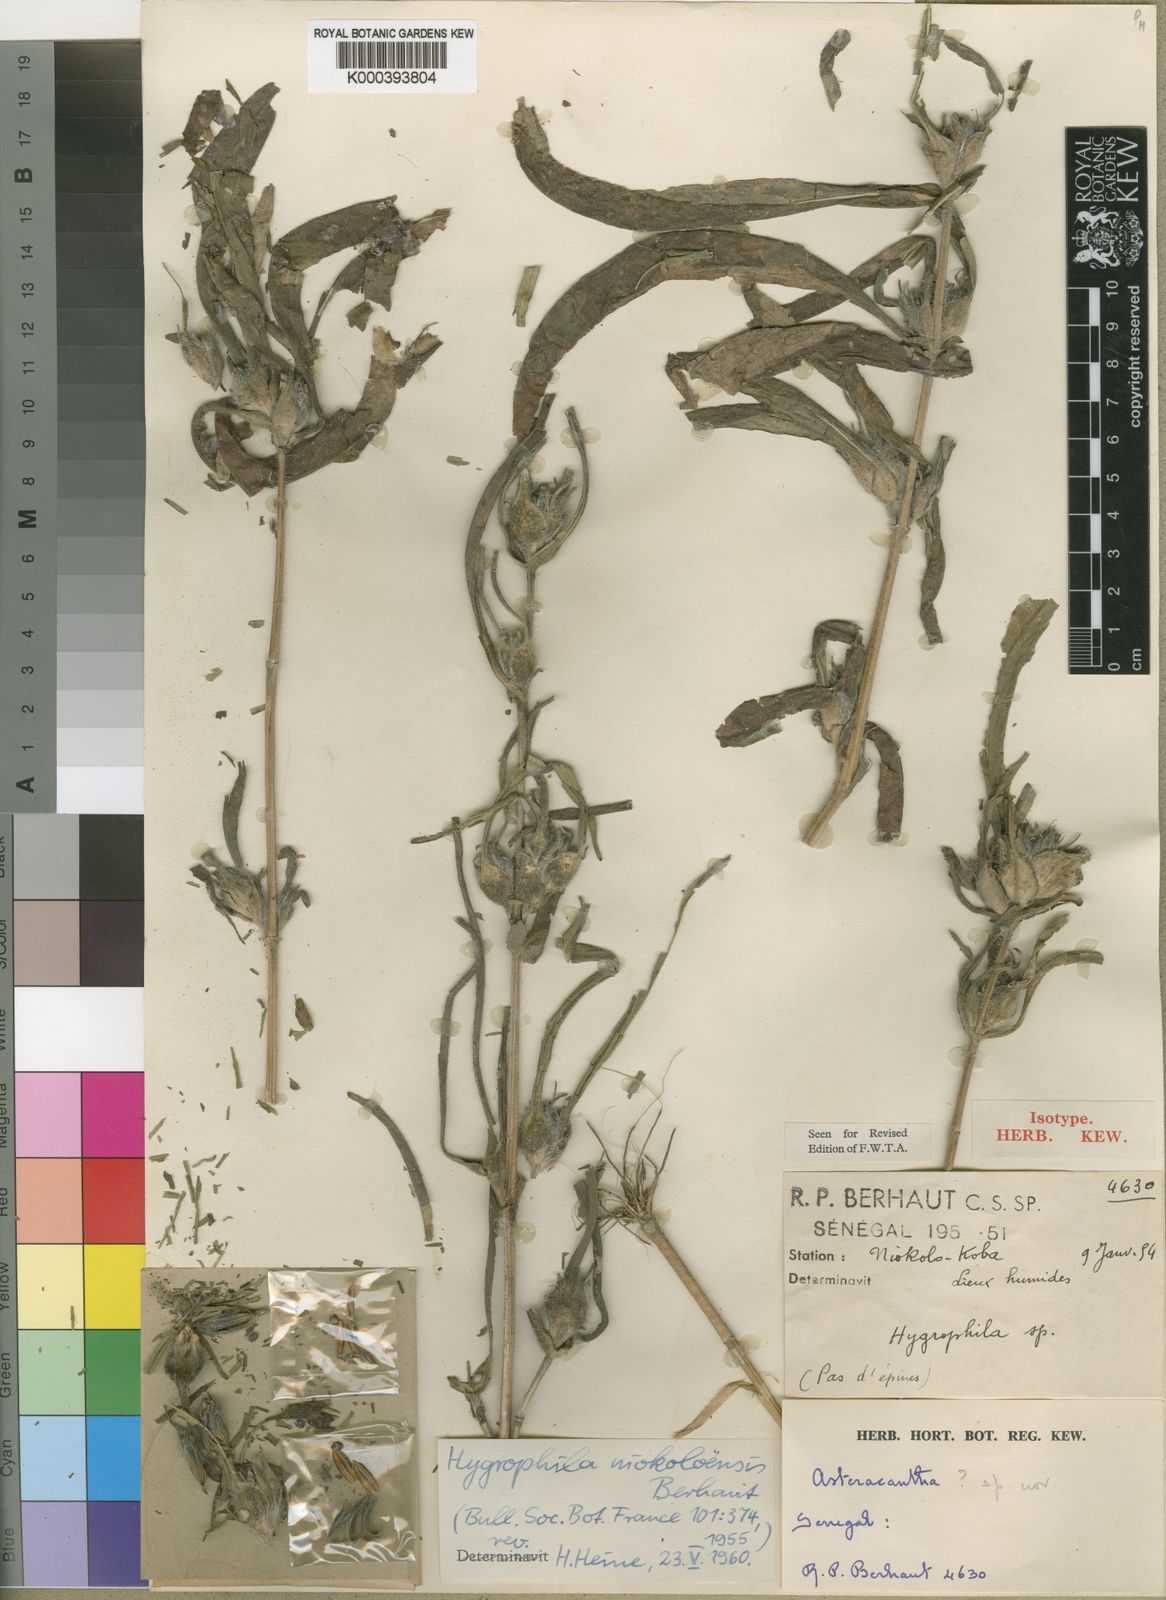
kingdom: Plantae
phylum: Tracheophyta
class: Magnoliopsida
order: Lamiales
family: Acanthaceae
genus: Hygrophila
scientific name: Hygrophila niokoloensis
